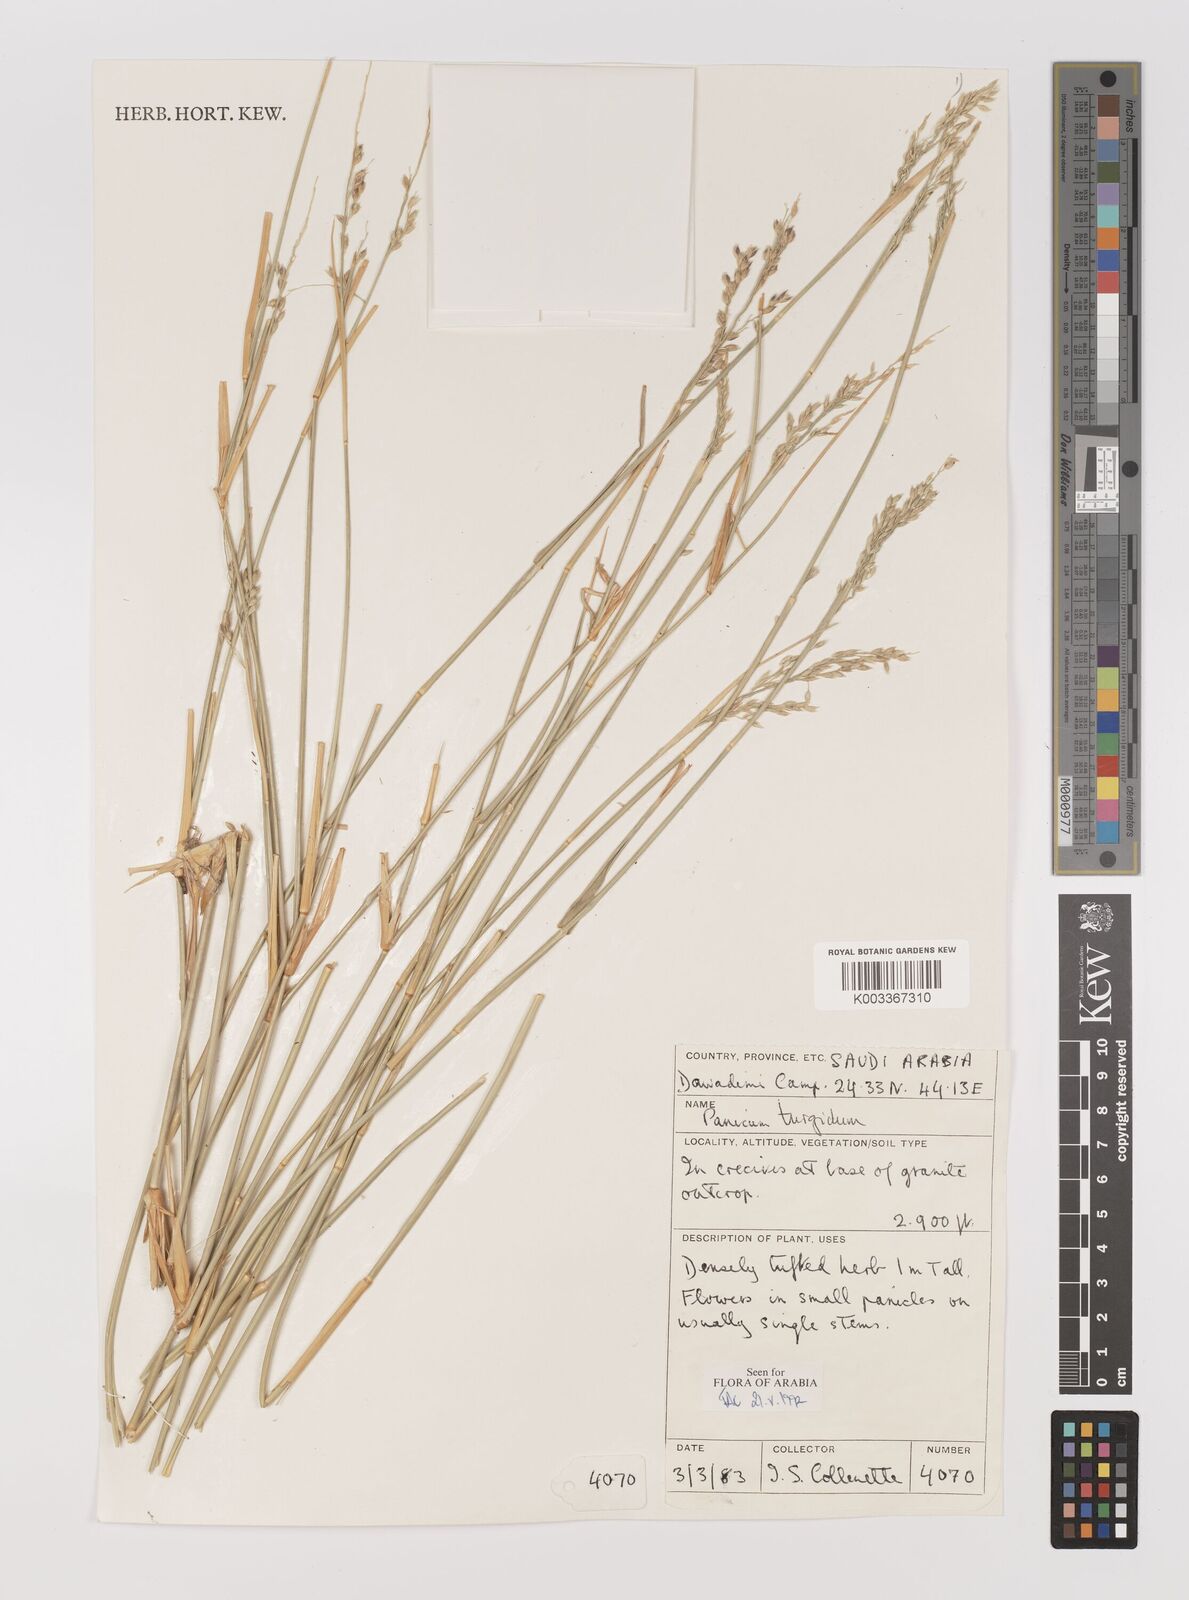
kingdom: Plantae
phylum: Tracheophyta
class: Liliopsida
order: Poales
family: Poaceae
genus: Panicum
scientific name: Panicum turgidum
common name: Desert grass
